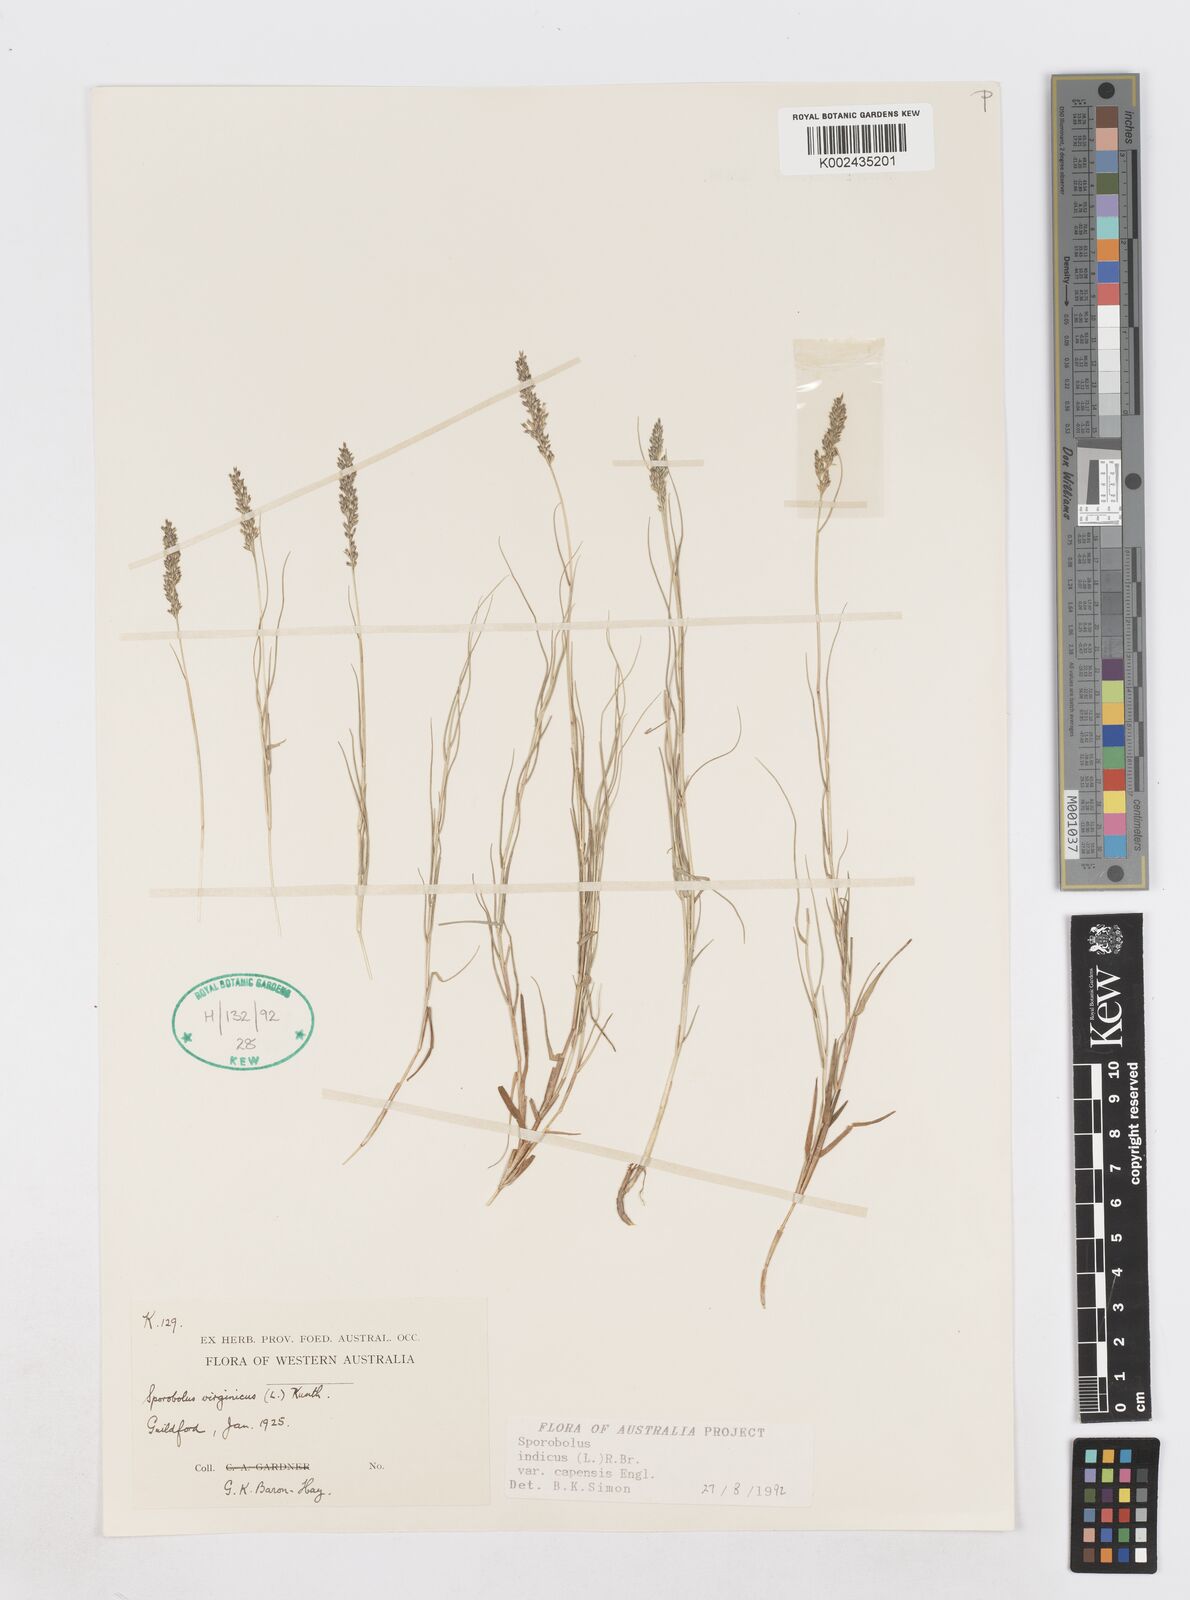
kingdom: Plantae
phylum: Tracheophyta
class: Liliopsida
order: Poales
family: Poaceae
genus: Sporobolus
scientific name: Sporobolus virginicus
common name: Beach dropseed
